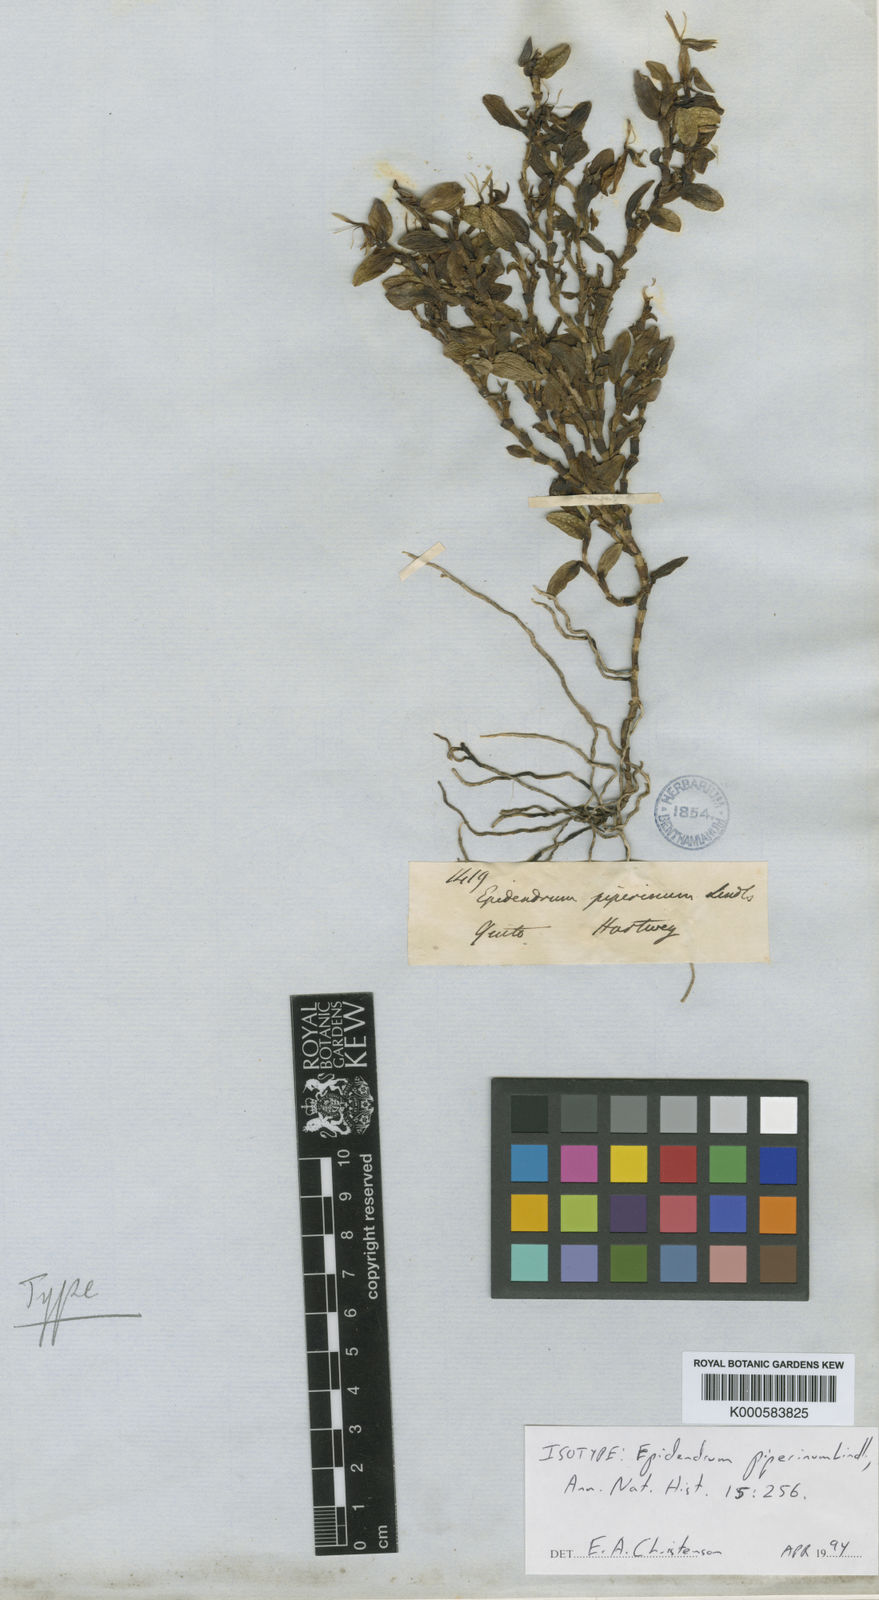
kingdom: Plantae
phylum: Tracheophyta
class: Liliopsida
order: Asparagales
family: Orchidaceae
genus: Epidendrum
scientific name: Epidendrum piperinum
